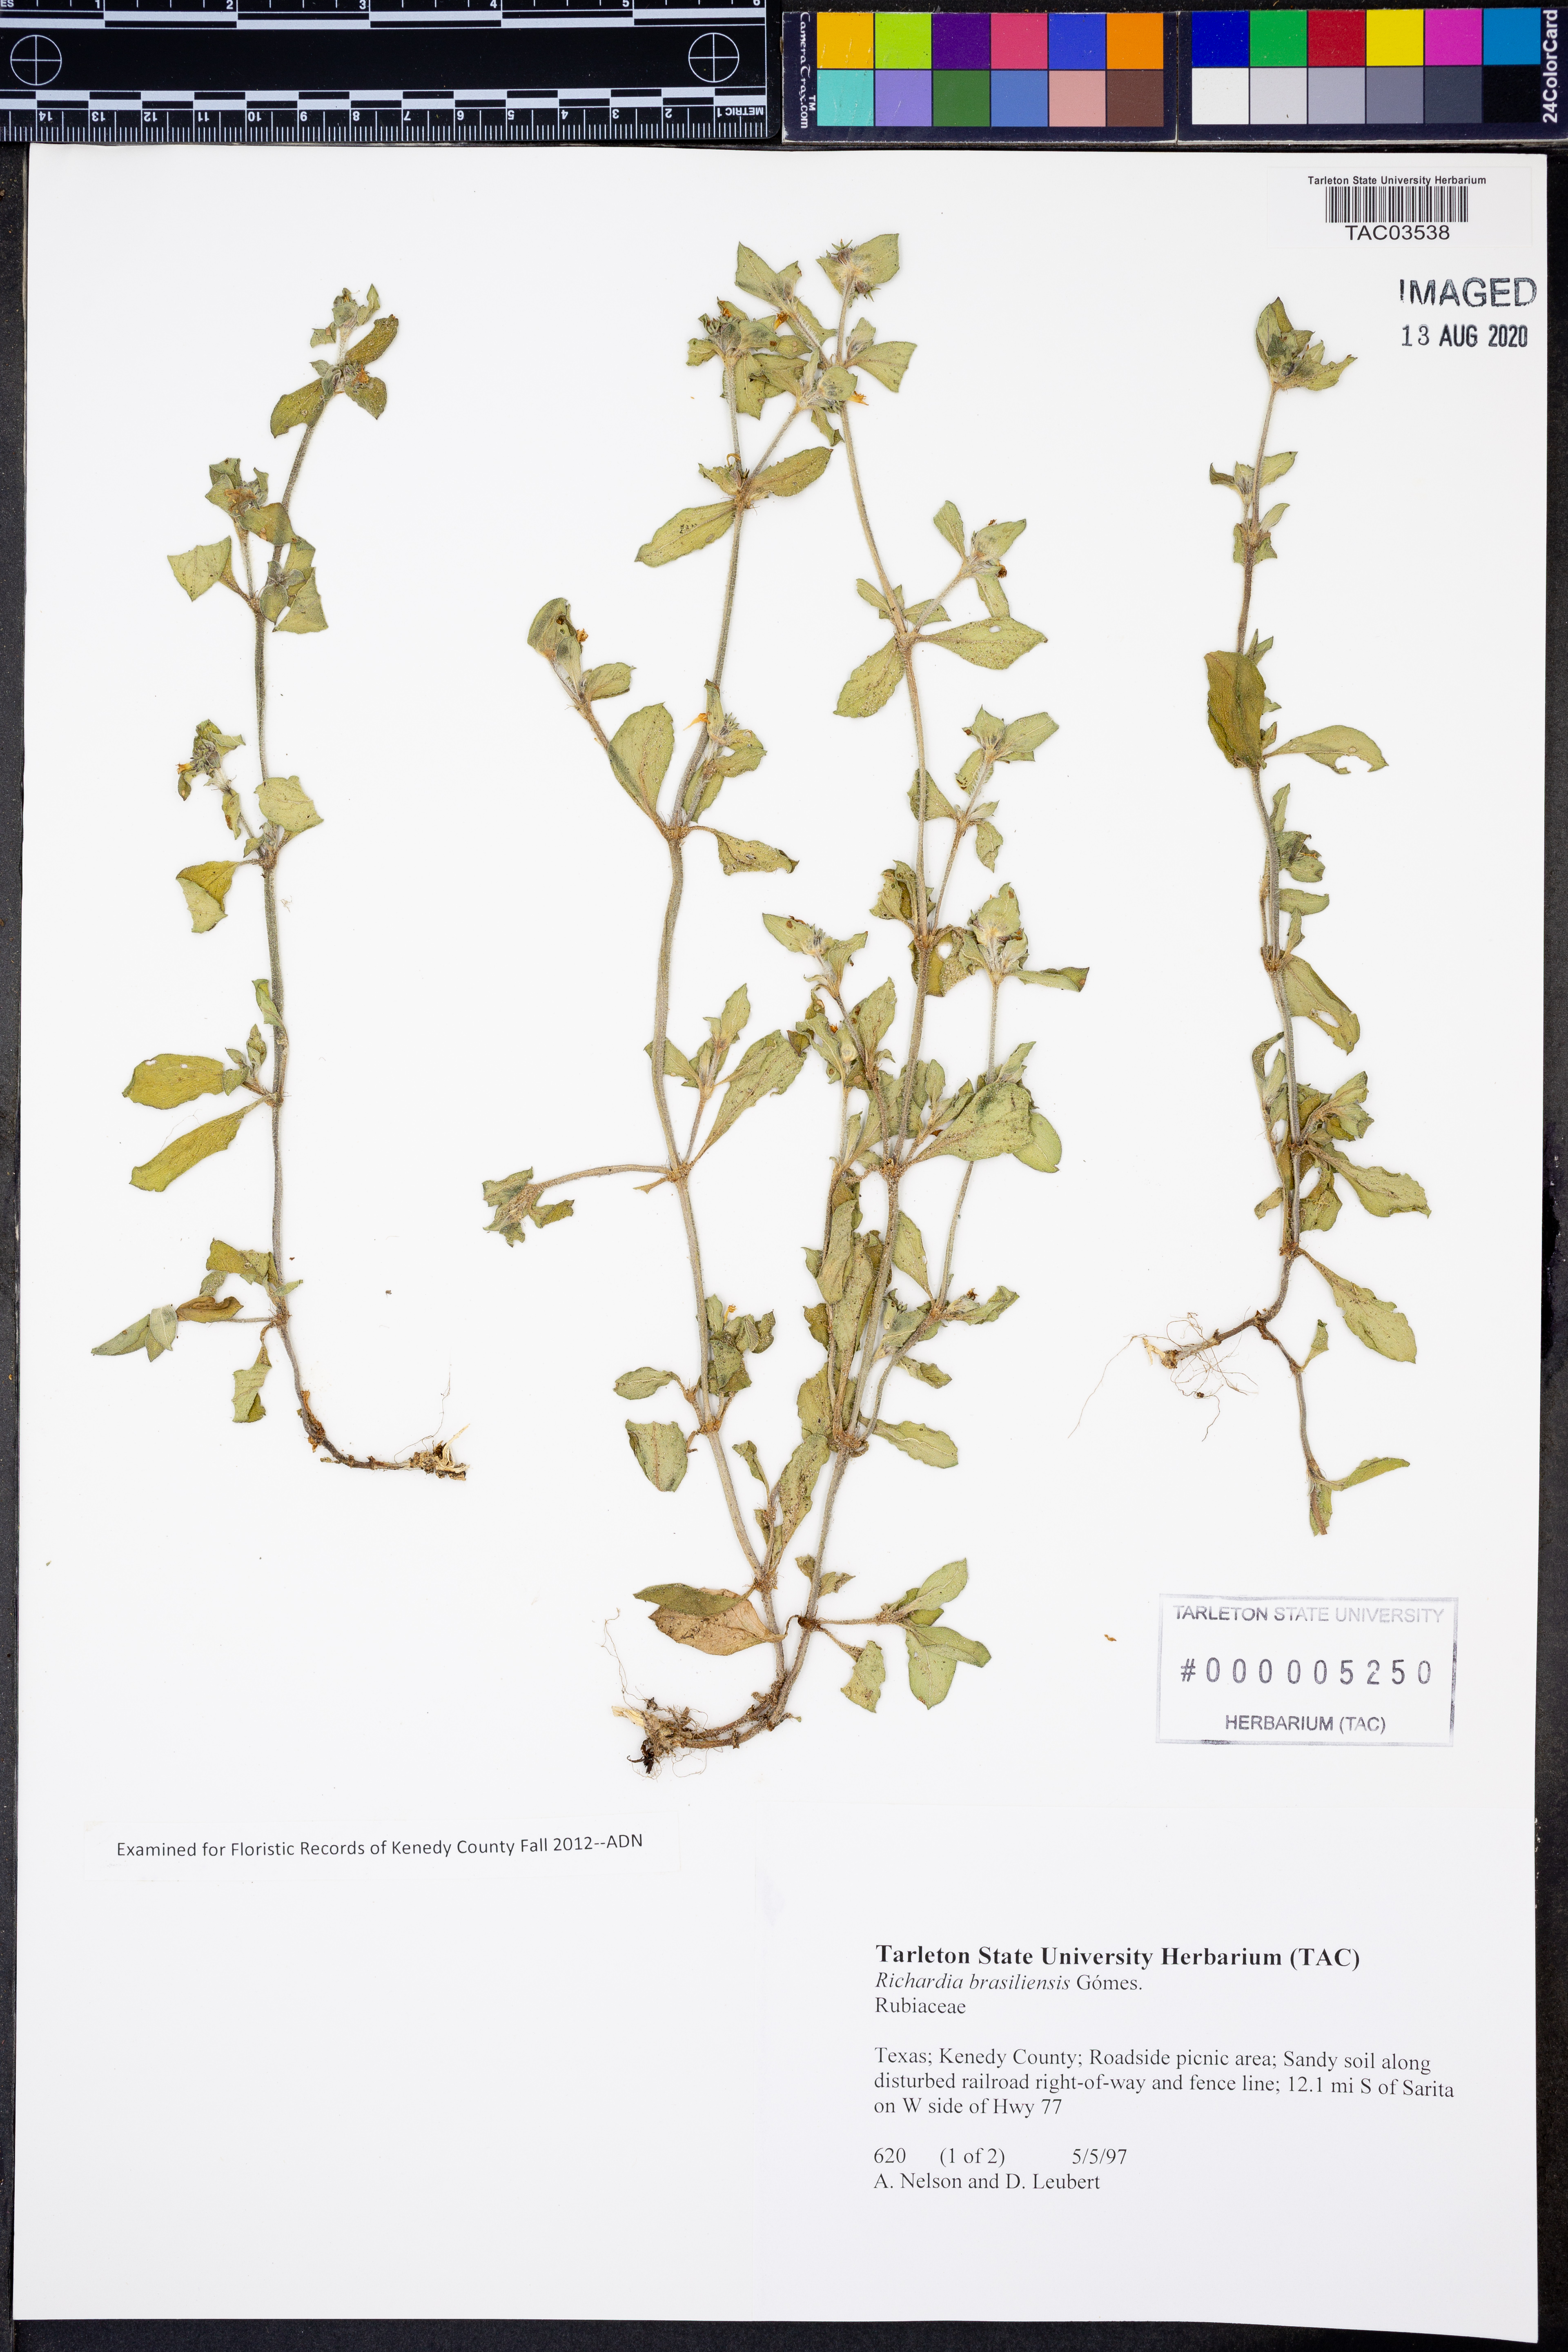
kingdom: Plantae
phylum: Tracheophyta
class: Magnoliopsida
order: Gentianales
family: Rubiaceae
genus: Richardia
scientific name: Richardia brasiliensis
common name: Tropical mexican clover
